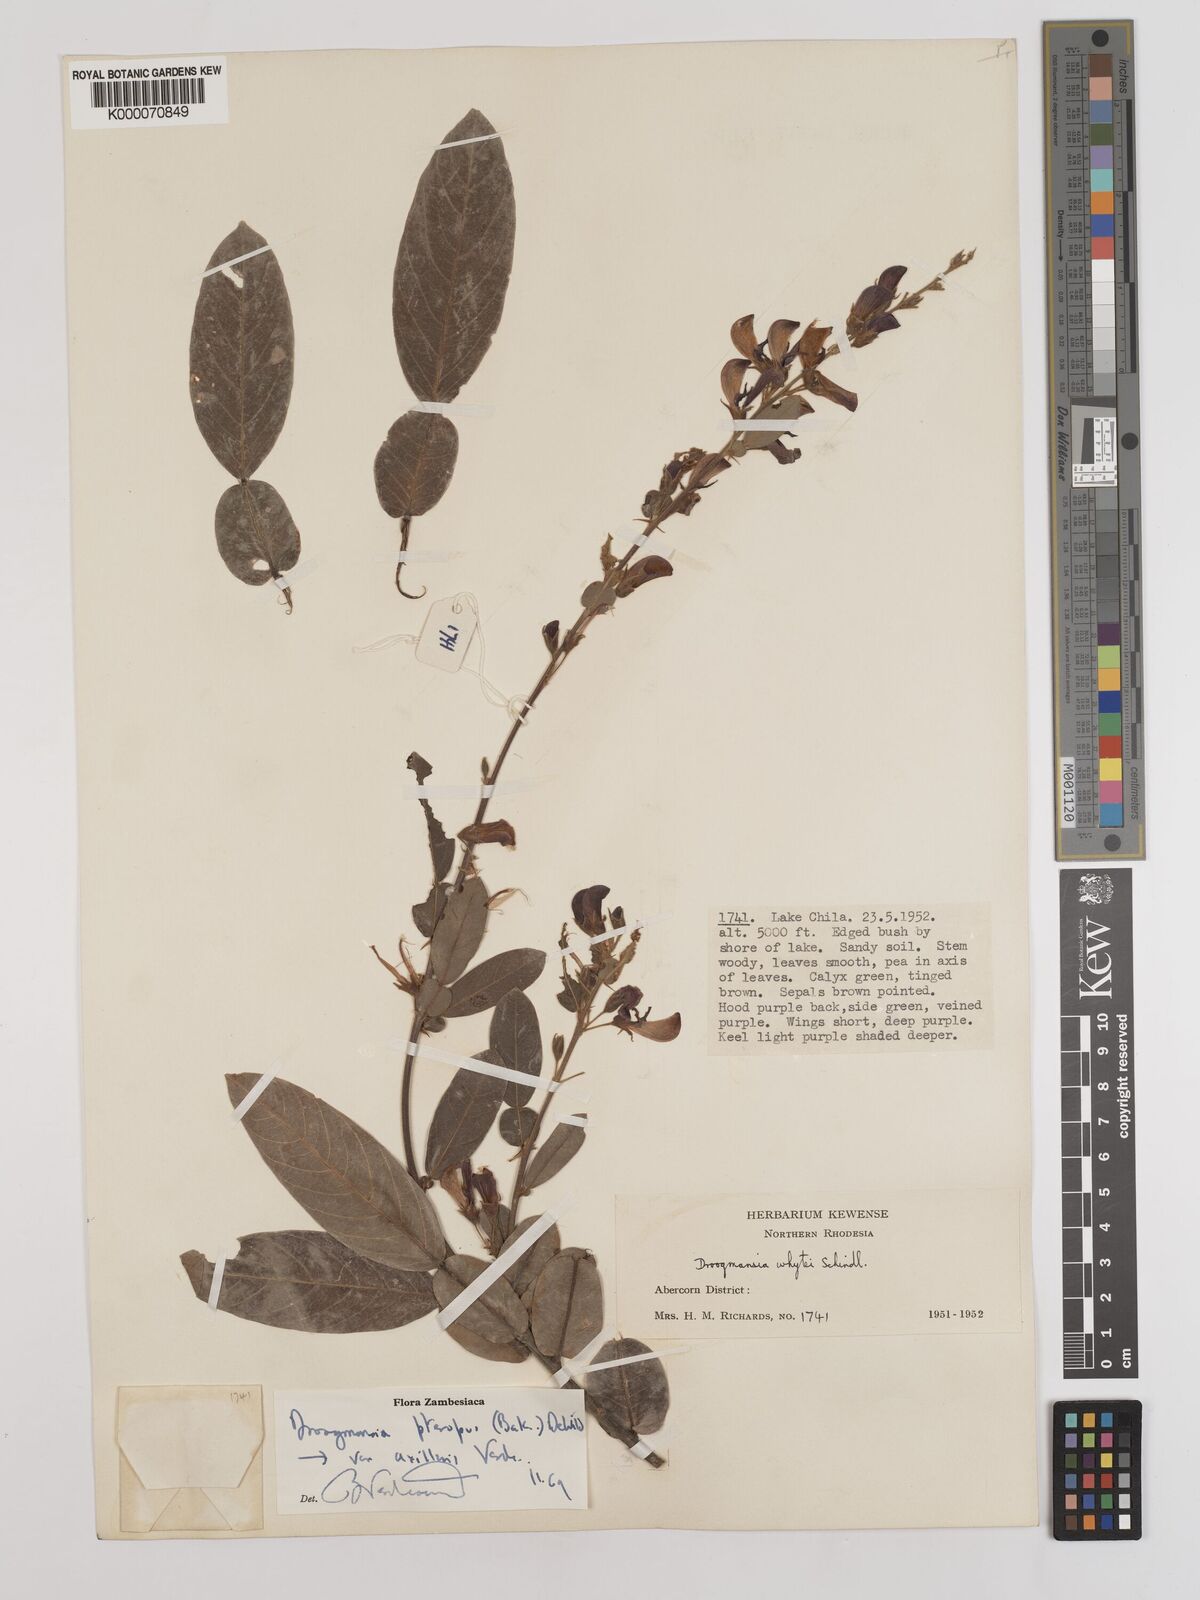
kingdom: Plantae
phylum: Tracheophyta
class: Magnoliopsida
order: Fabales
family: Fabaceae
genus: Droogmansia
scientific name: Droogmansia pteropus
